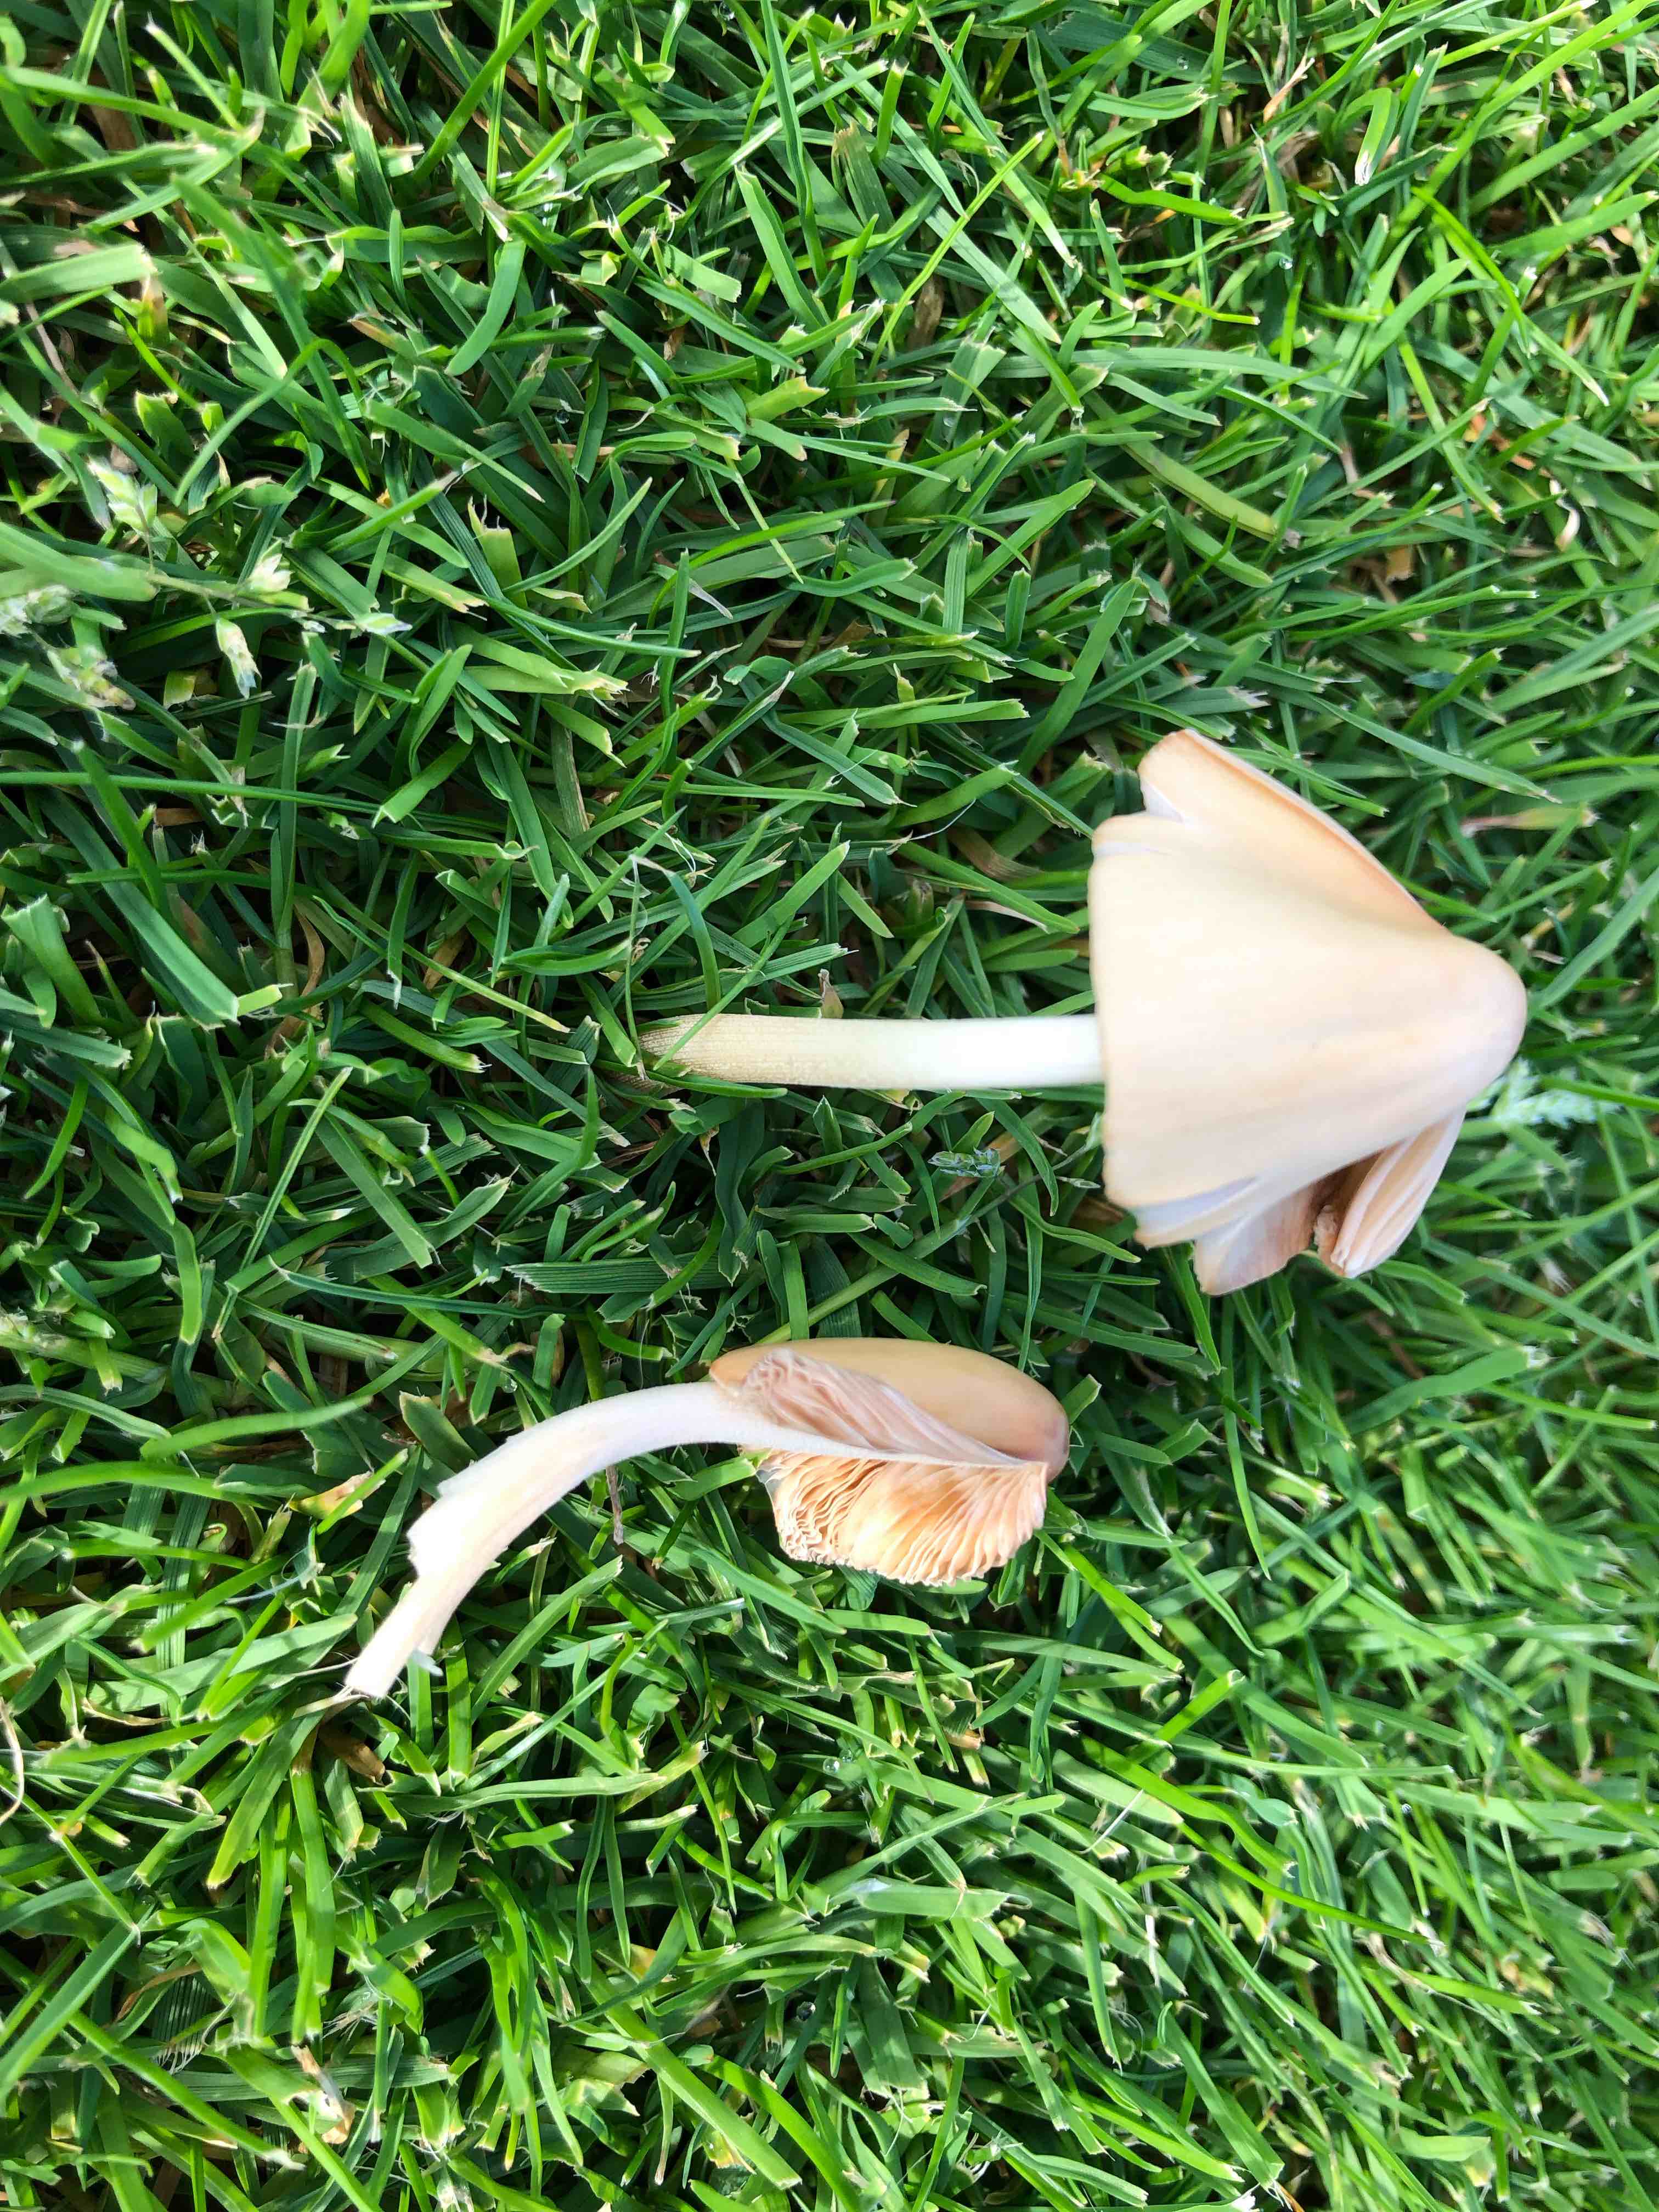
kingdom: Fungi
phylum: Basidiomycota
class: Agaricomycetes
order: Agaricales
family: Bolbitiaceae
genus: Conocybe
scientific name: Conocybe apala
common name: mælkehvid keglehat
